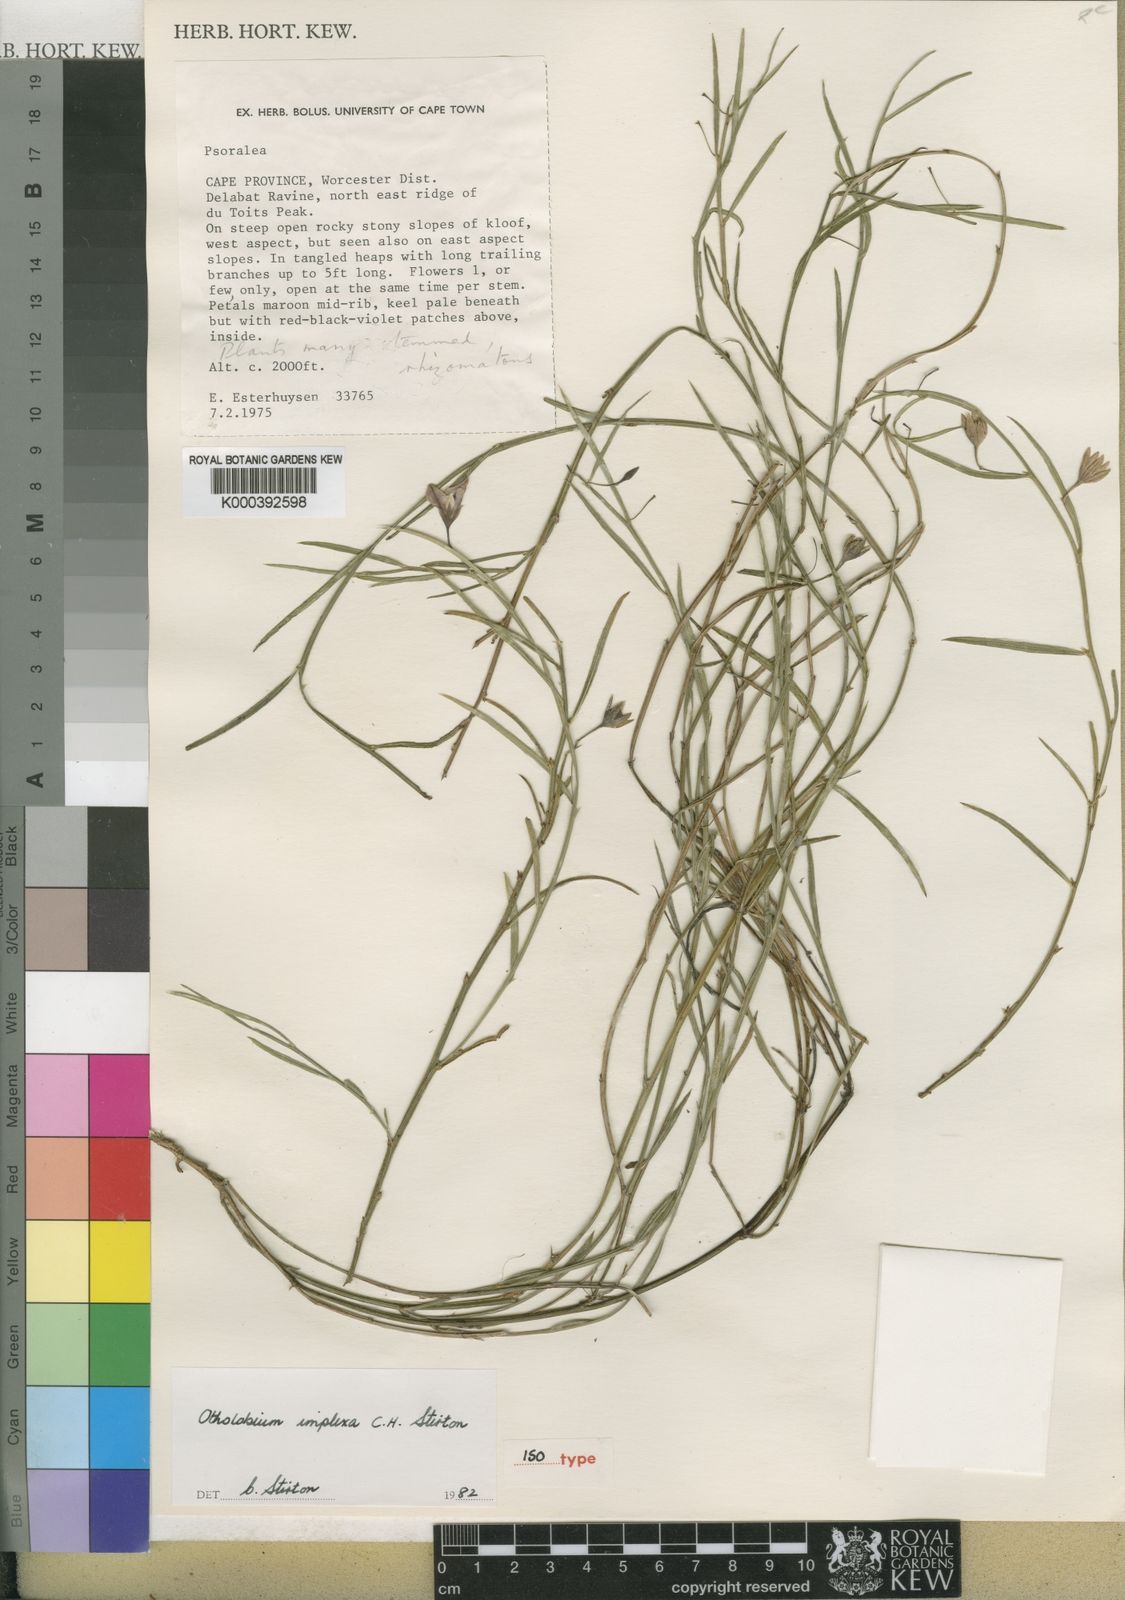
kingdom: Plantae
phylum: Tracheophyta
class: Magnoliopsida
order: Fabales
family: Fabaceae
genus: Otholobium
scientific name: Otholobium
